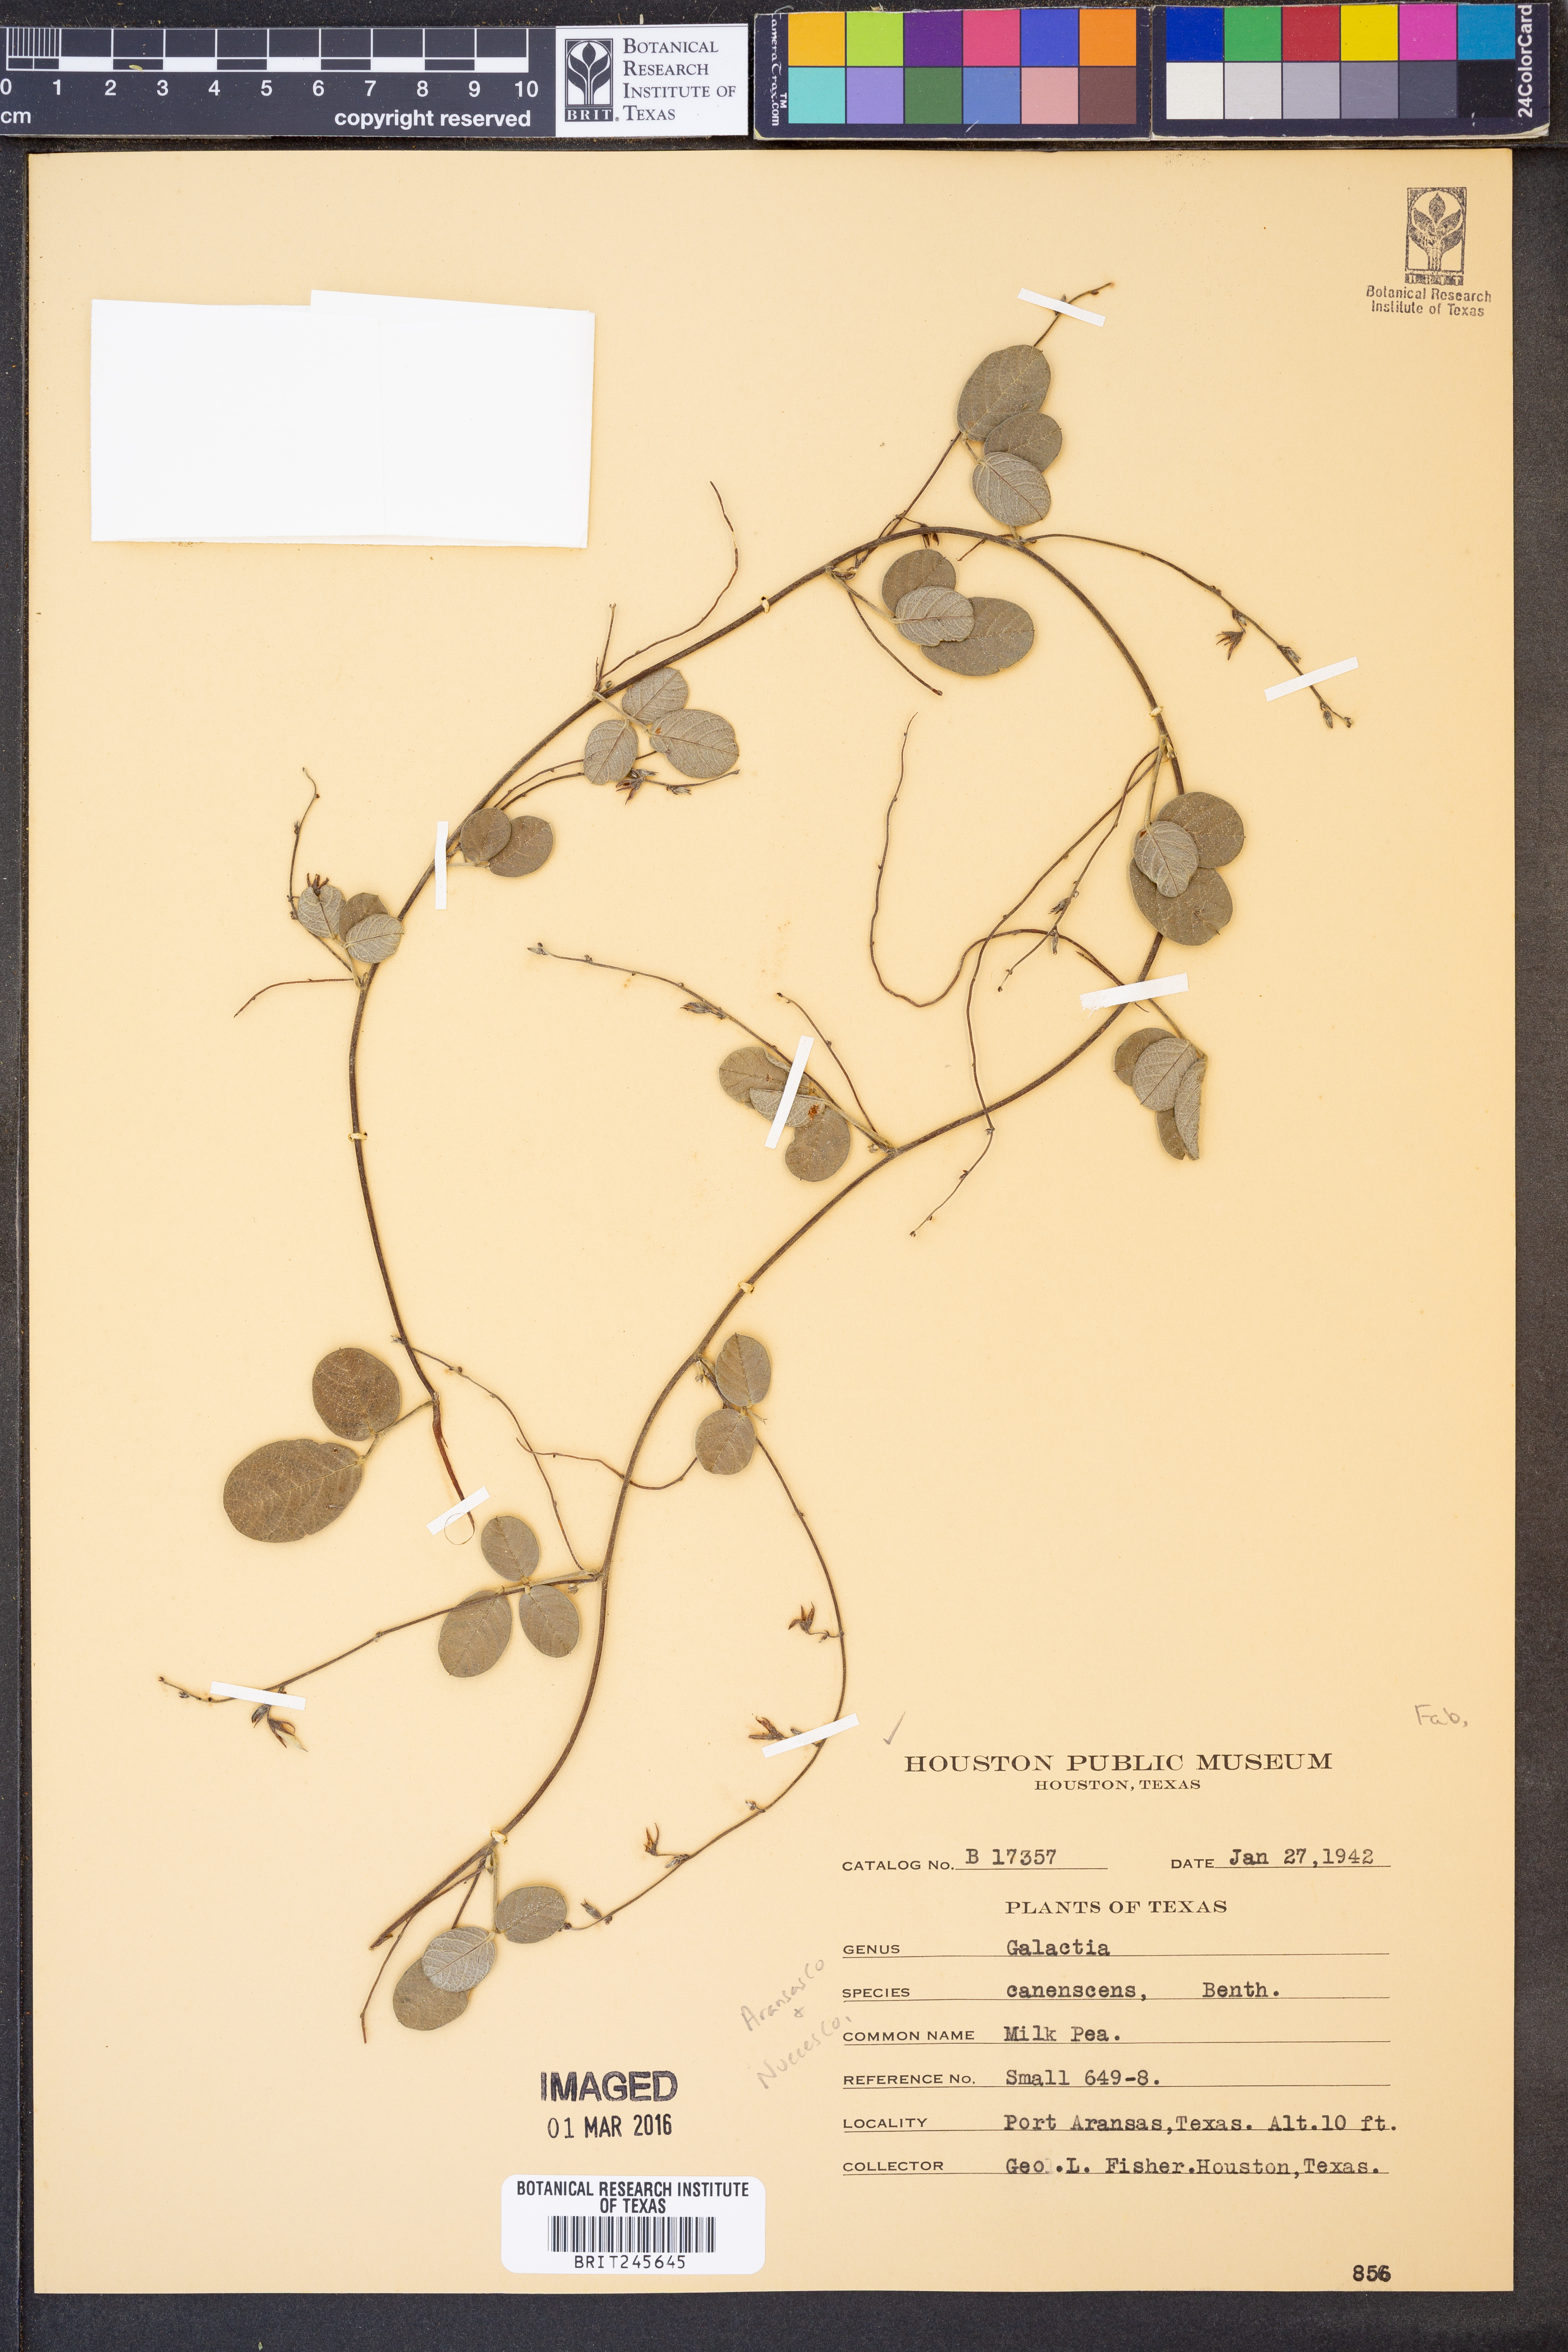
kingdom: Plantae
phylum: Tracheophyta
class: Magnoliopsida
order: Fabales
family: Fabaceae
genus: Galactia
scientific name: Galactia canescens
